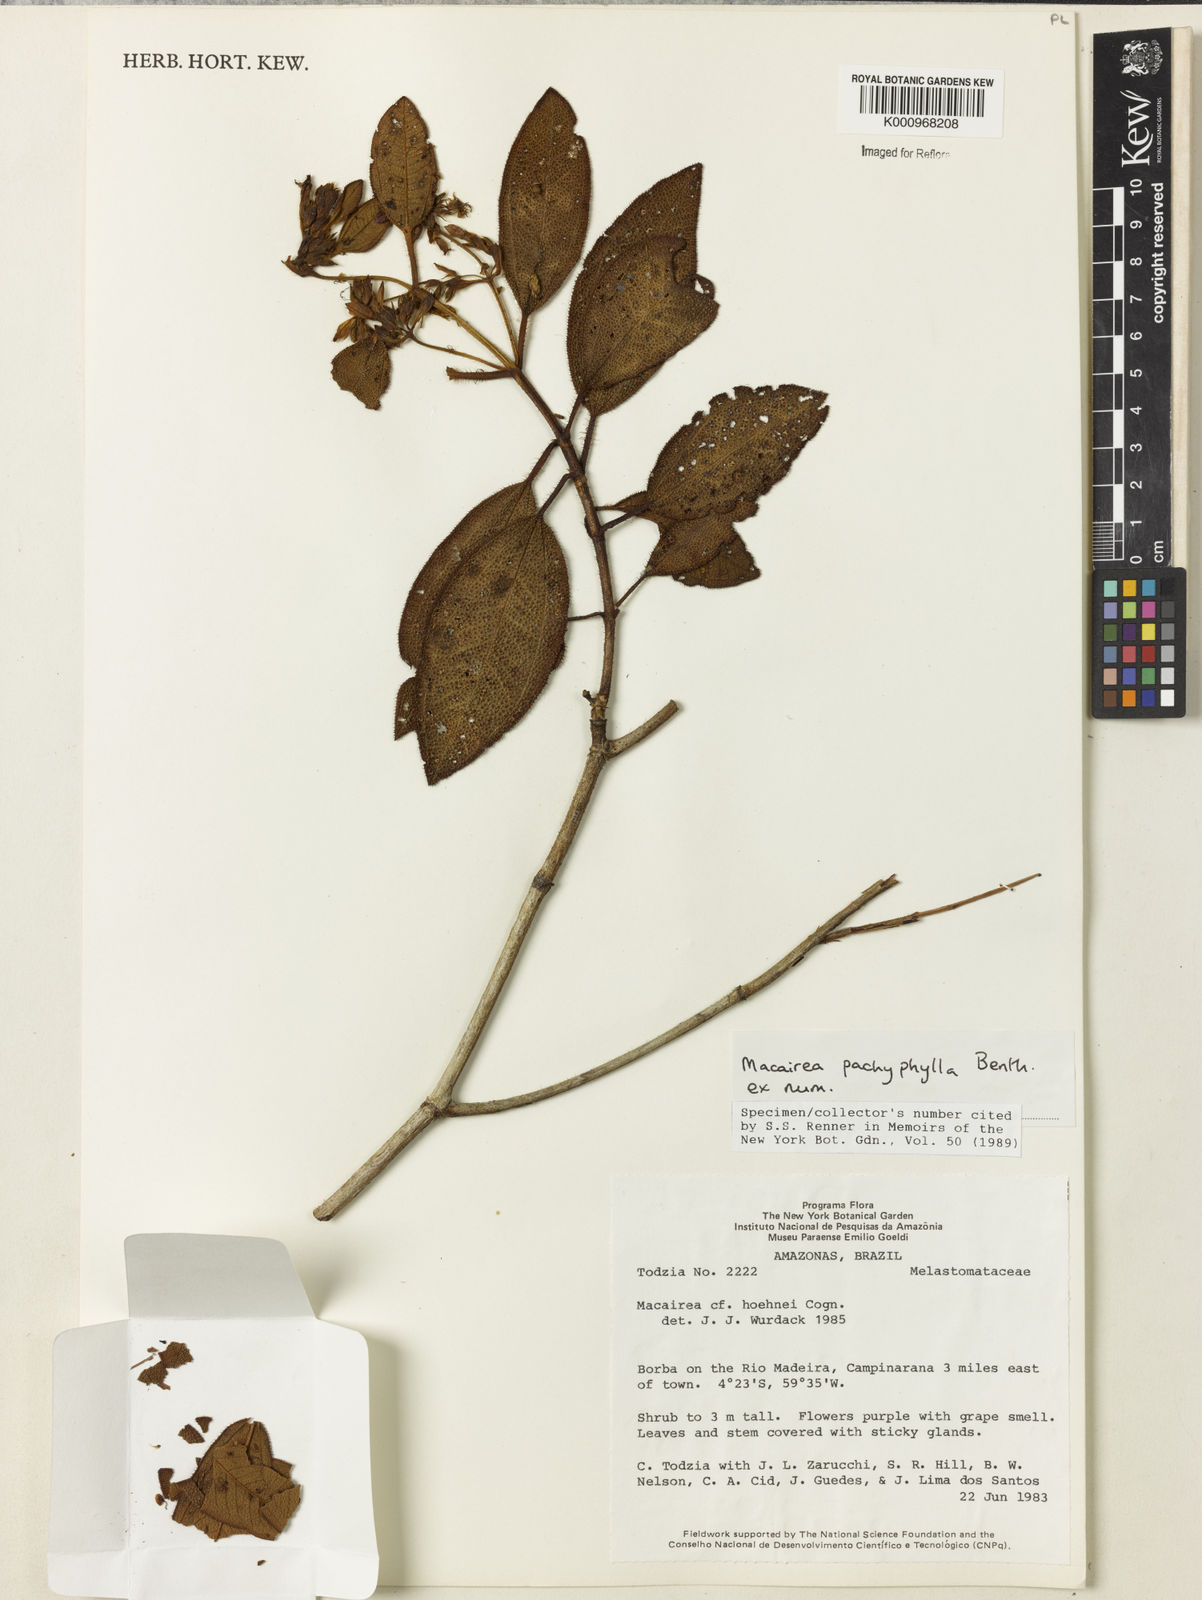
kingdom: Plantae
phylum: Tracheophyta
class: Magnoliopsida
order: Myrtales
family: Melastomataceae
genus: Macairea
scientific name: Macairea pachyphylla
